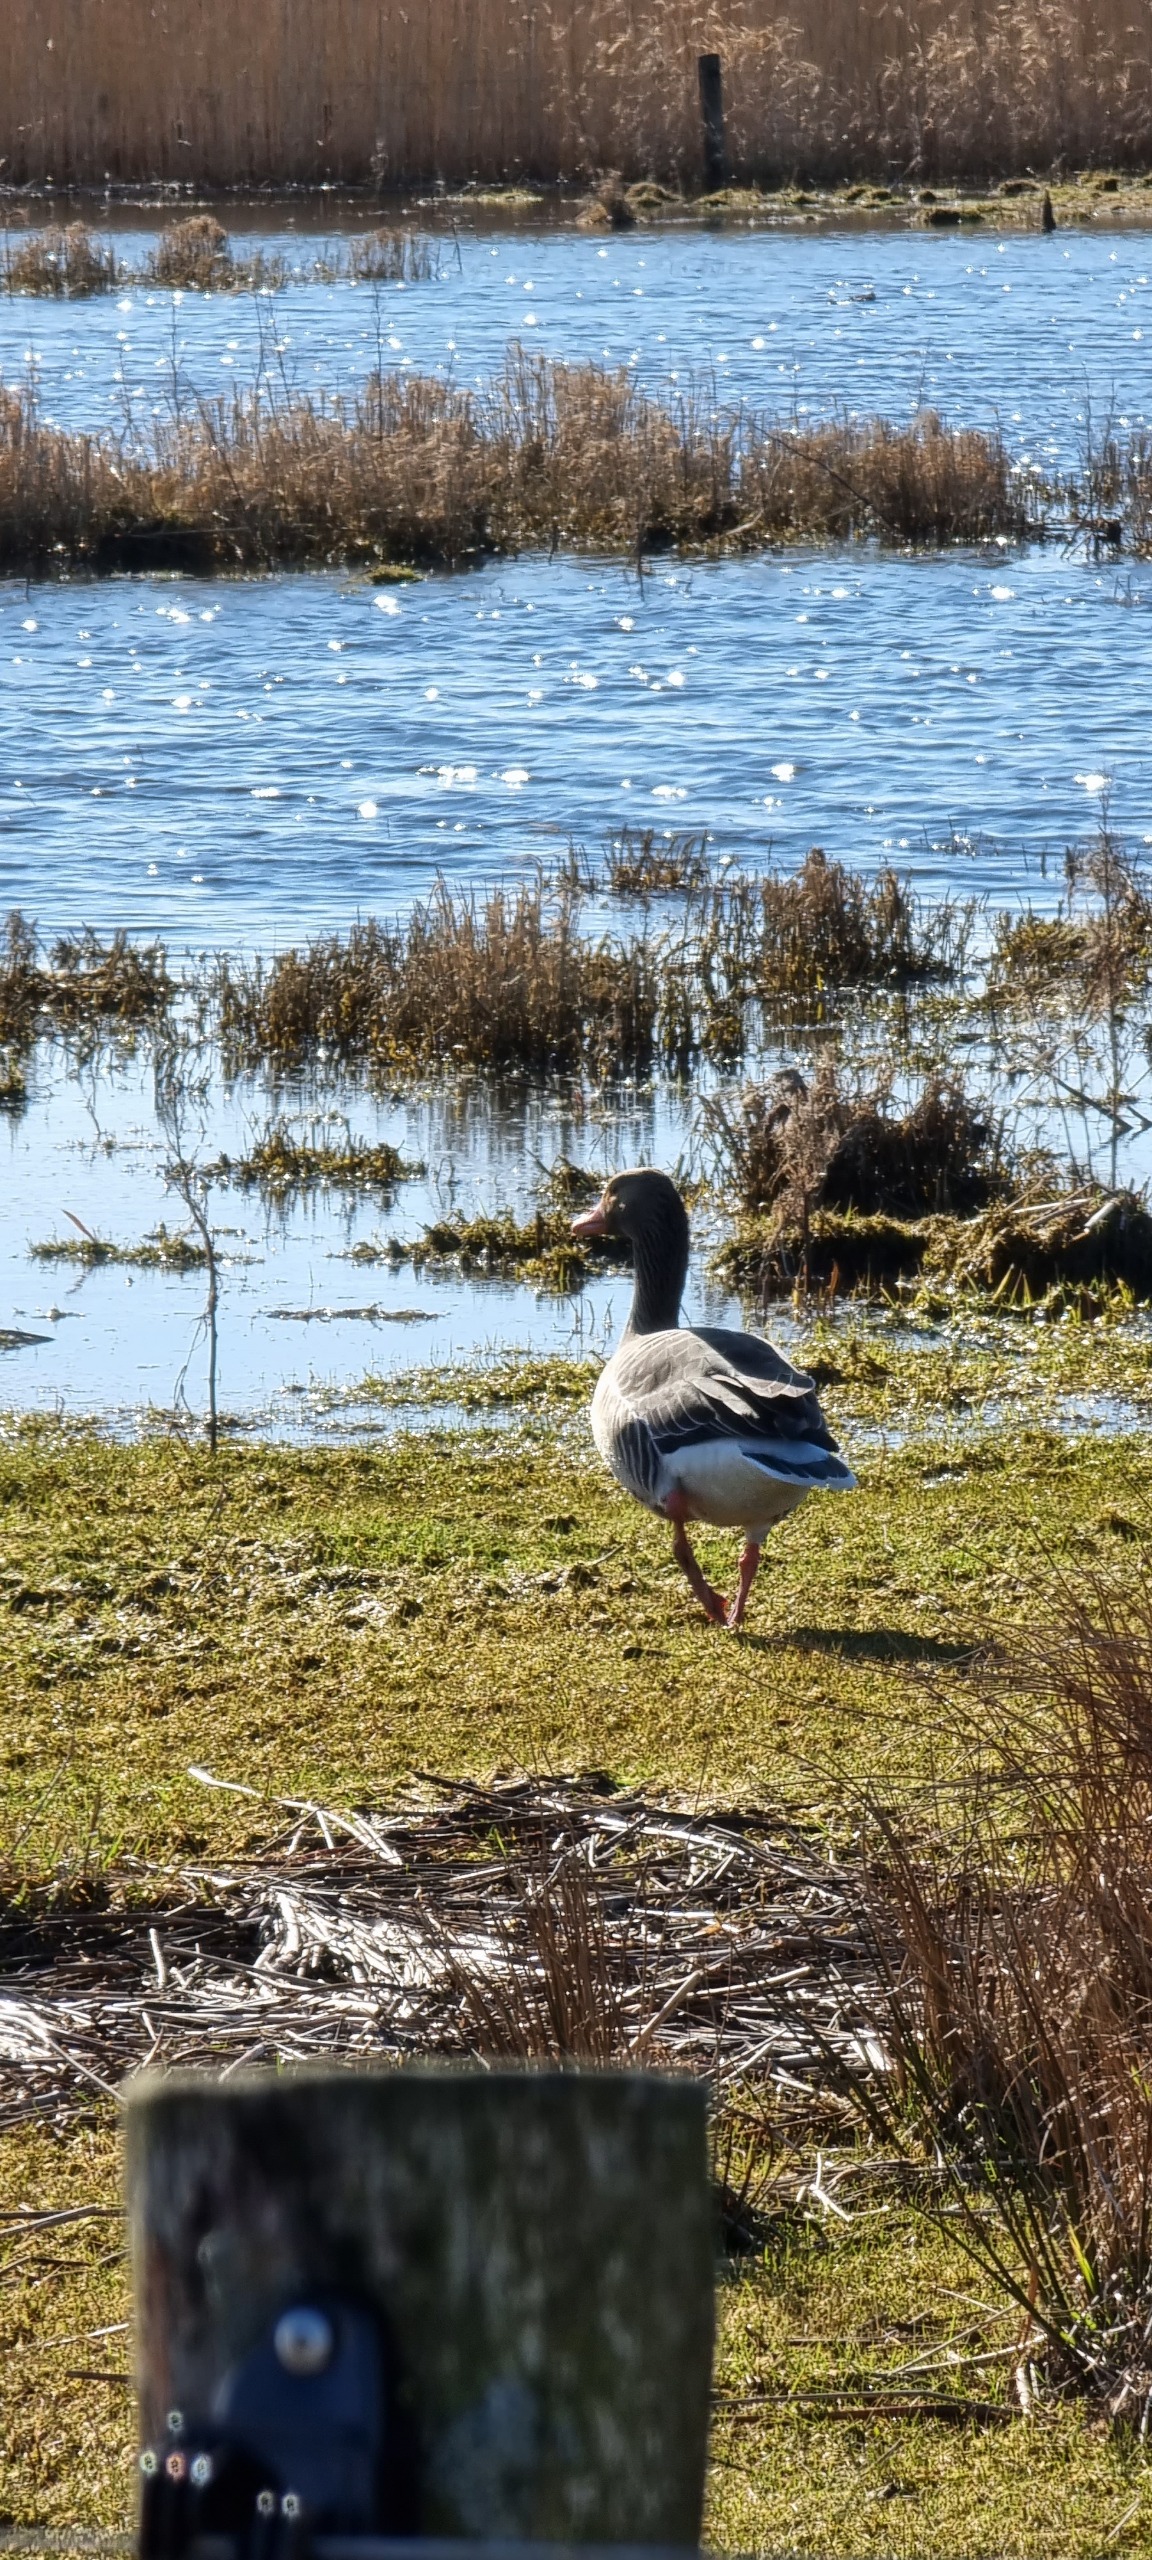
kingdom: Animalia
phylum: Chordata
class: Aves
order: Anseriformes
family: Anatidae
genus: Anser
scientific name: Anser anser
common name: Grågås
